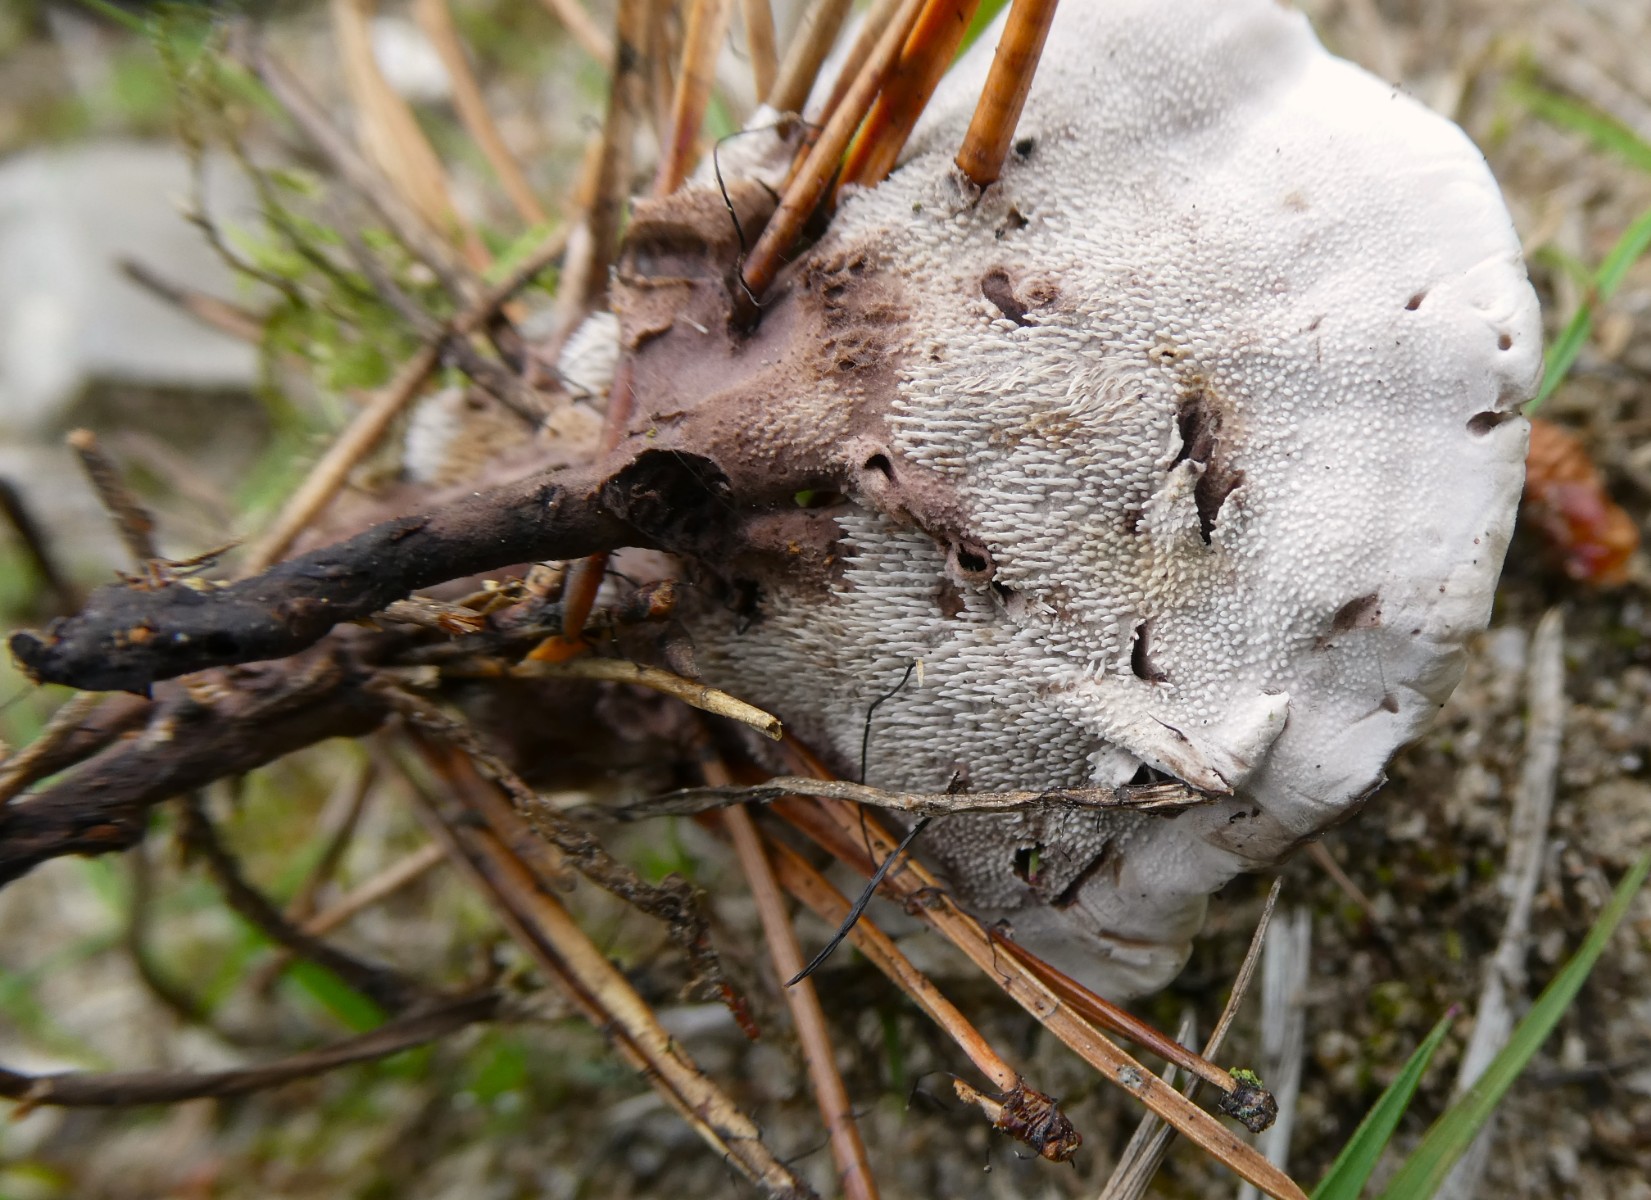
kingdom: Fungi
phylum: Basidiomycota
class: Agaricomycetes
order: Thelephorales
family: Thelephoraceae
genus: Phellodon
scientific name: Phellodon tomentosus
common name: vellugtende duftpigsvamp
